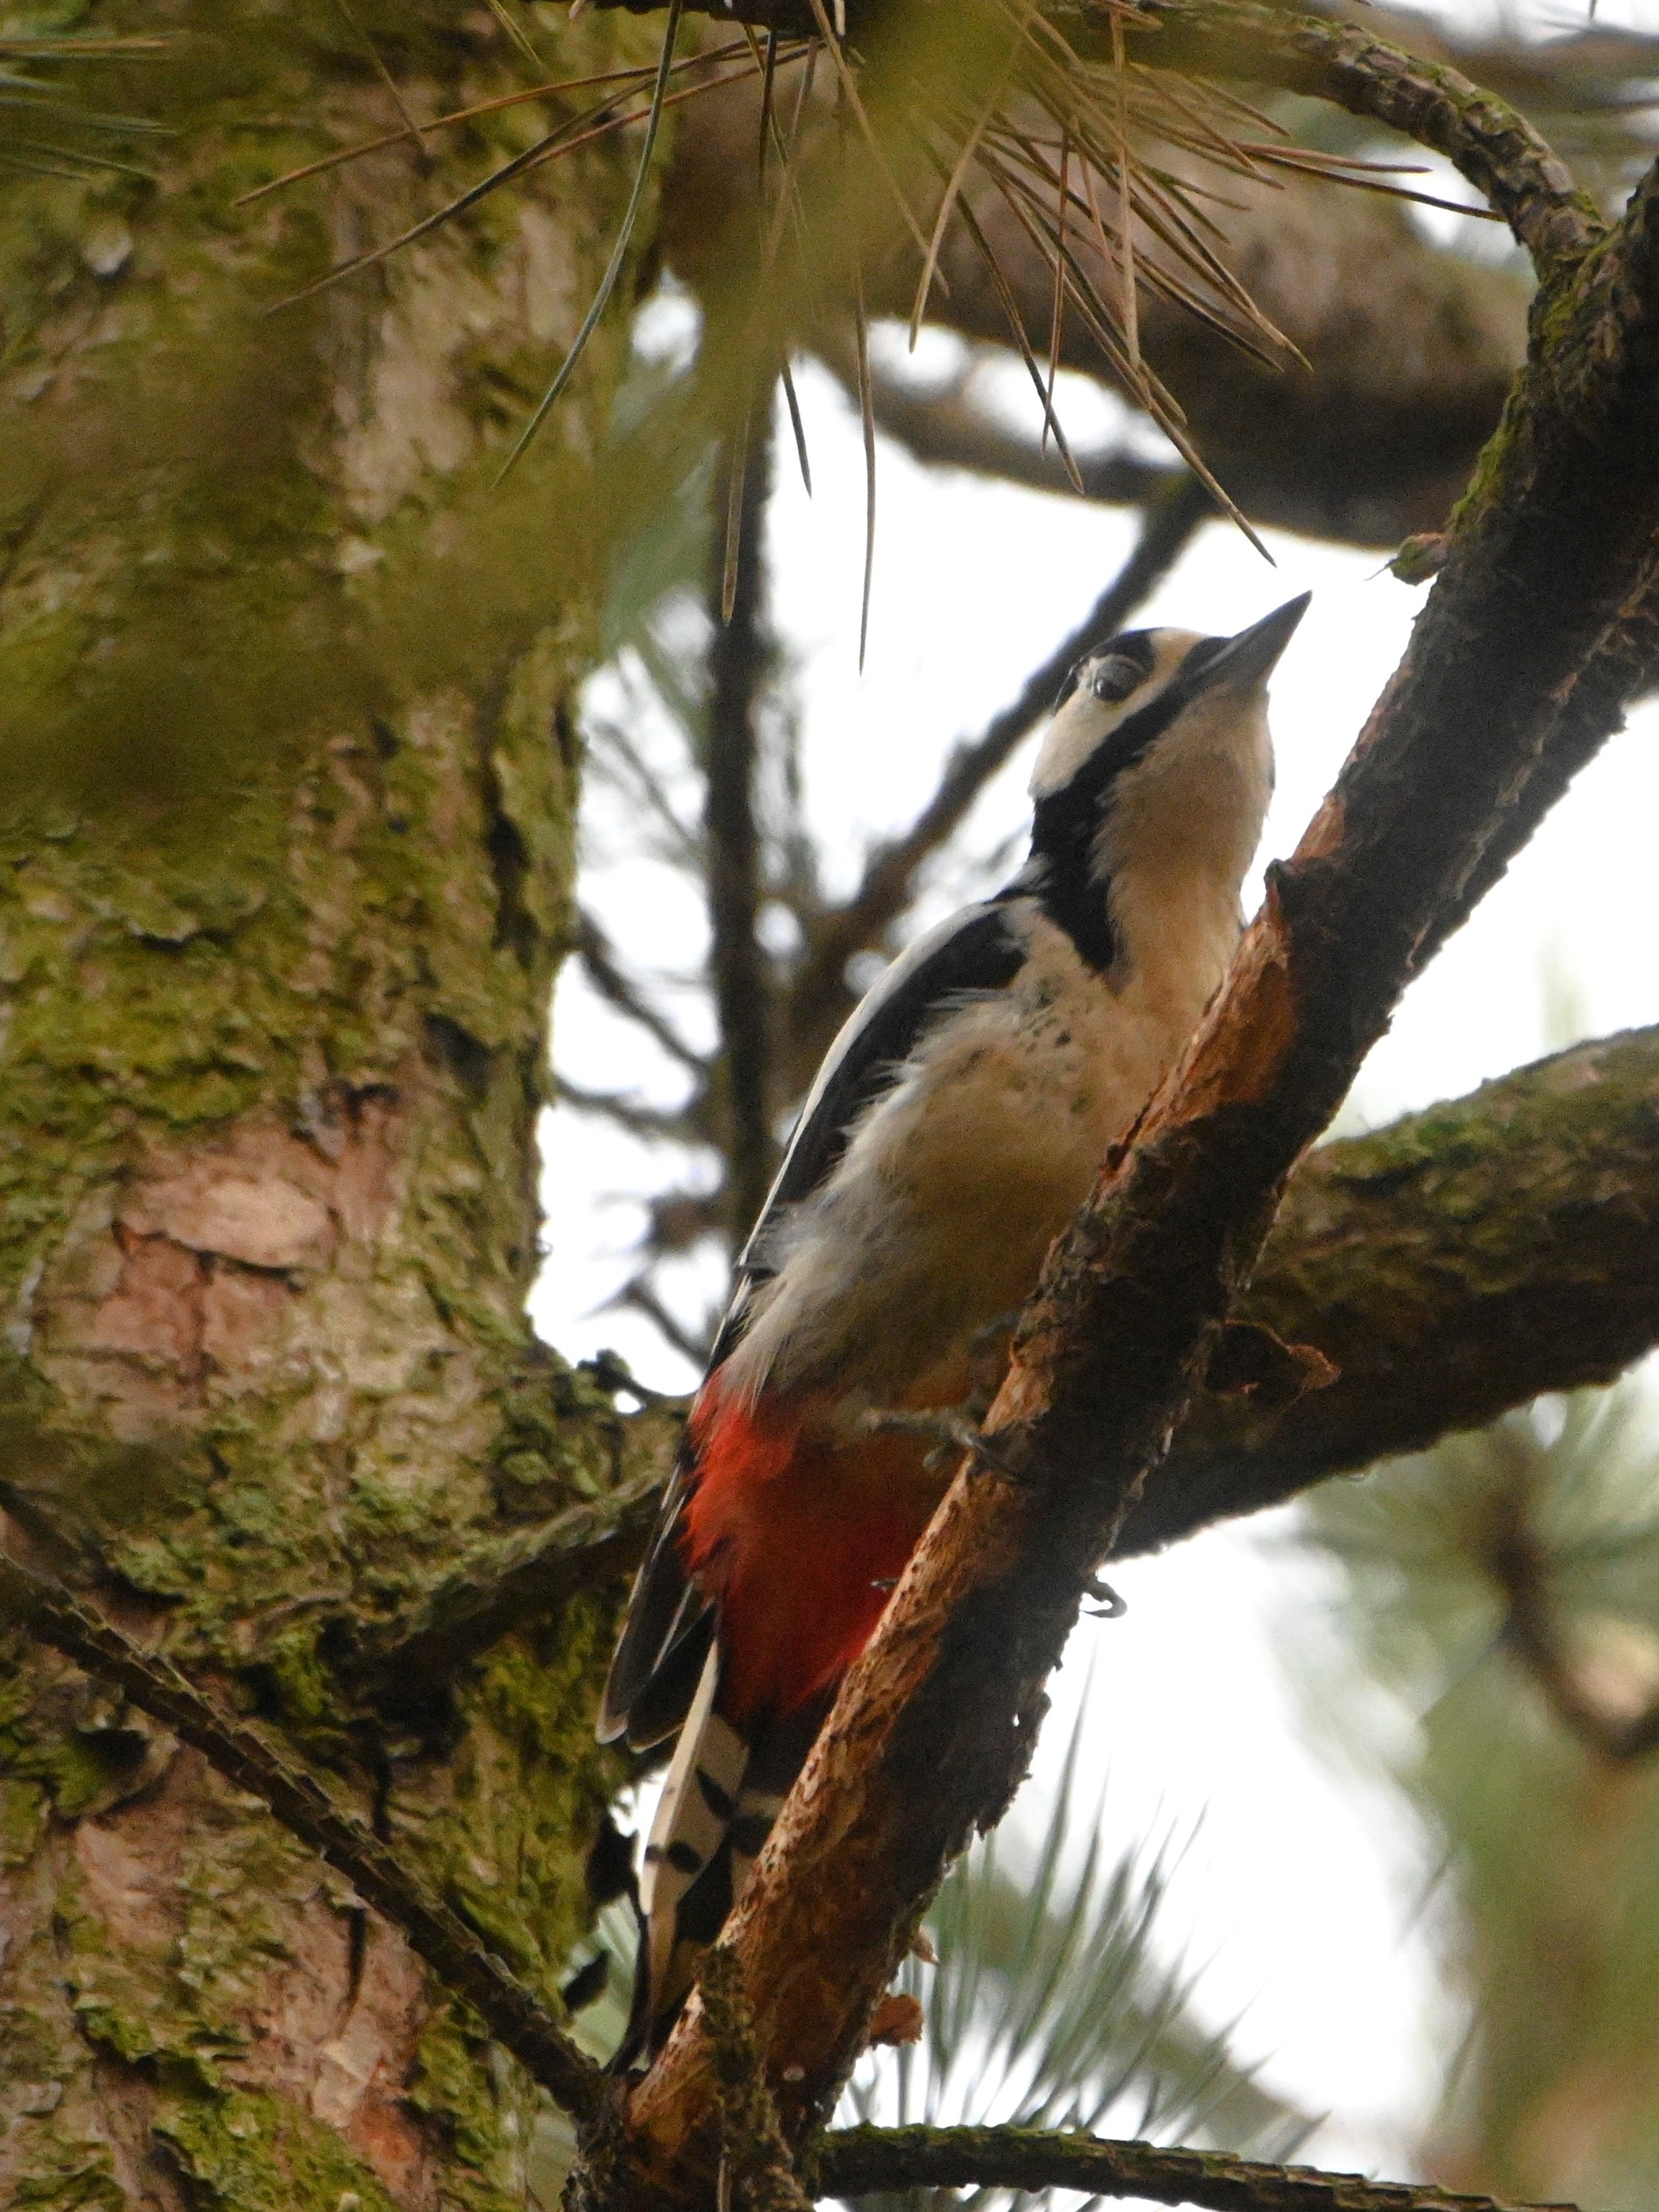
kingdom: Animalia
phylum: Chordata
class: Aves
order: Piciformes
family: Picidae
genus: Dendrocopos
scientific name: Dendrocopos major
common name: Stor flagspætte
